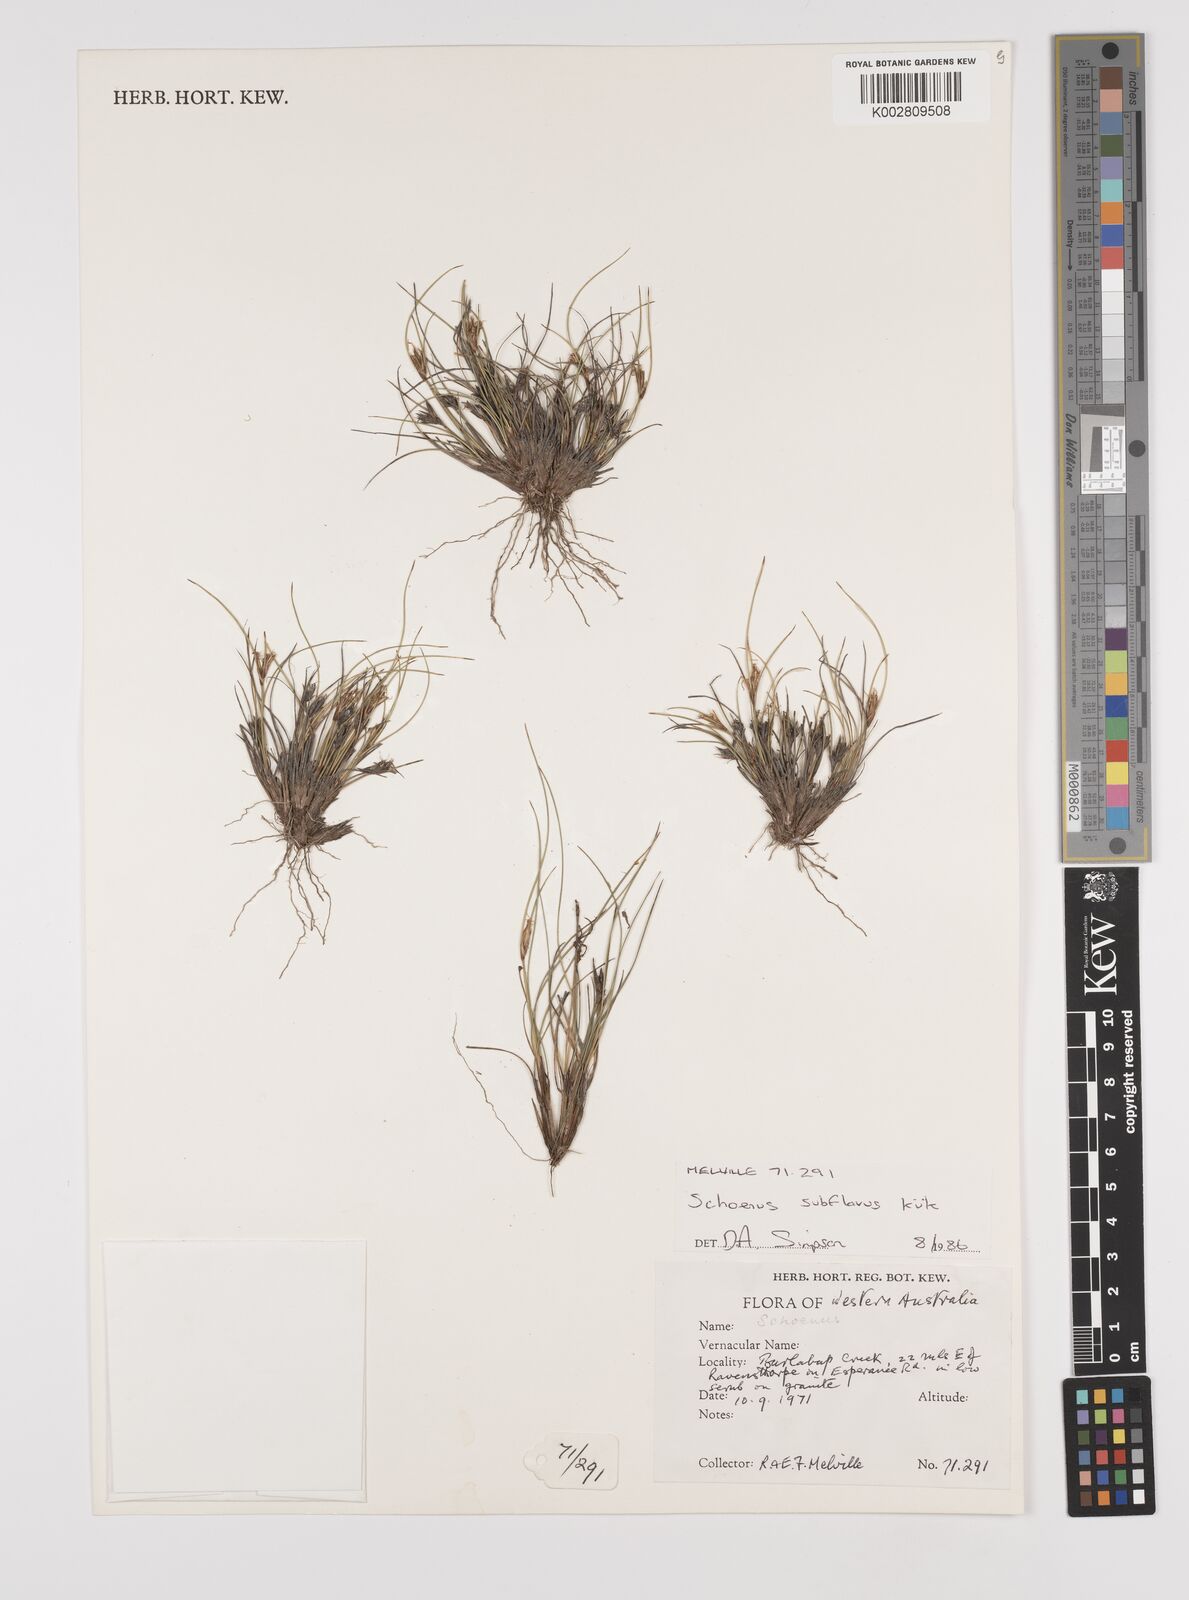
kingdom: Plantae
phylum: Tracheophyta
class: Liliopsida
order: Poales
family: Cyperaceae
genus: Schoenus
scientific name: Schoenus subflavus
